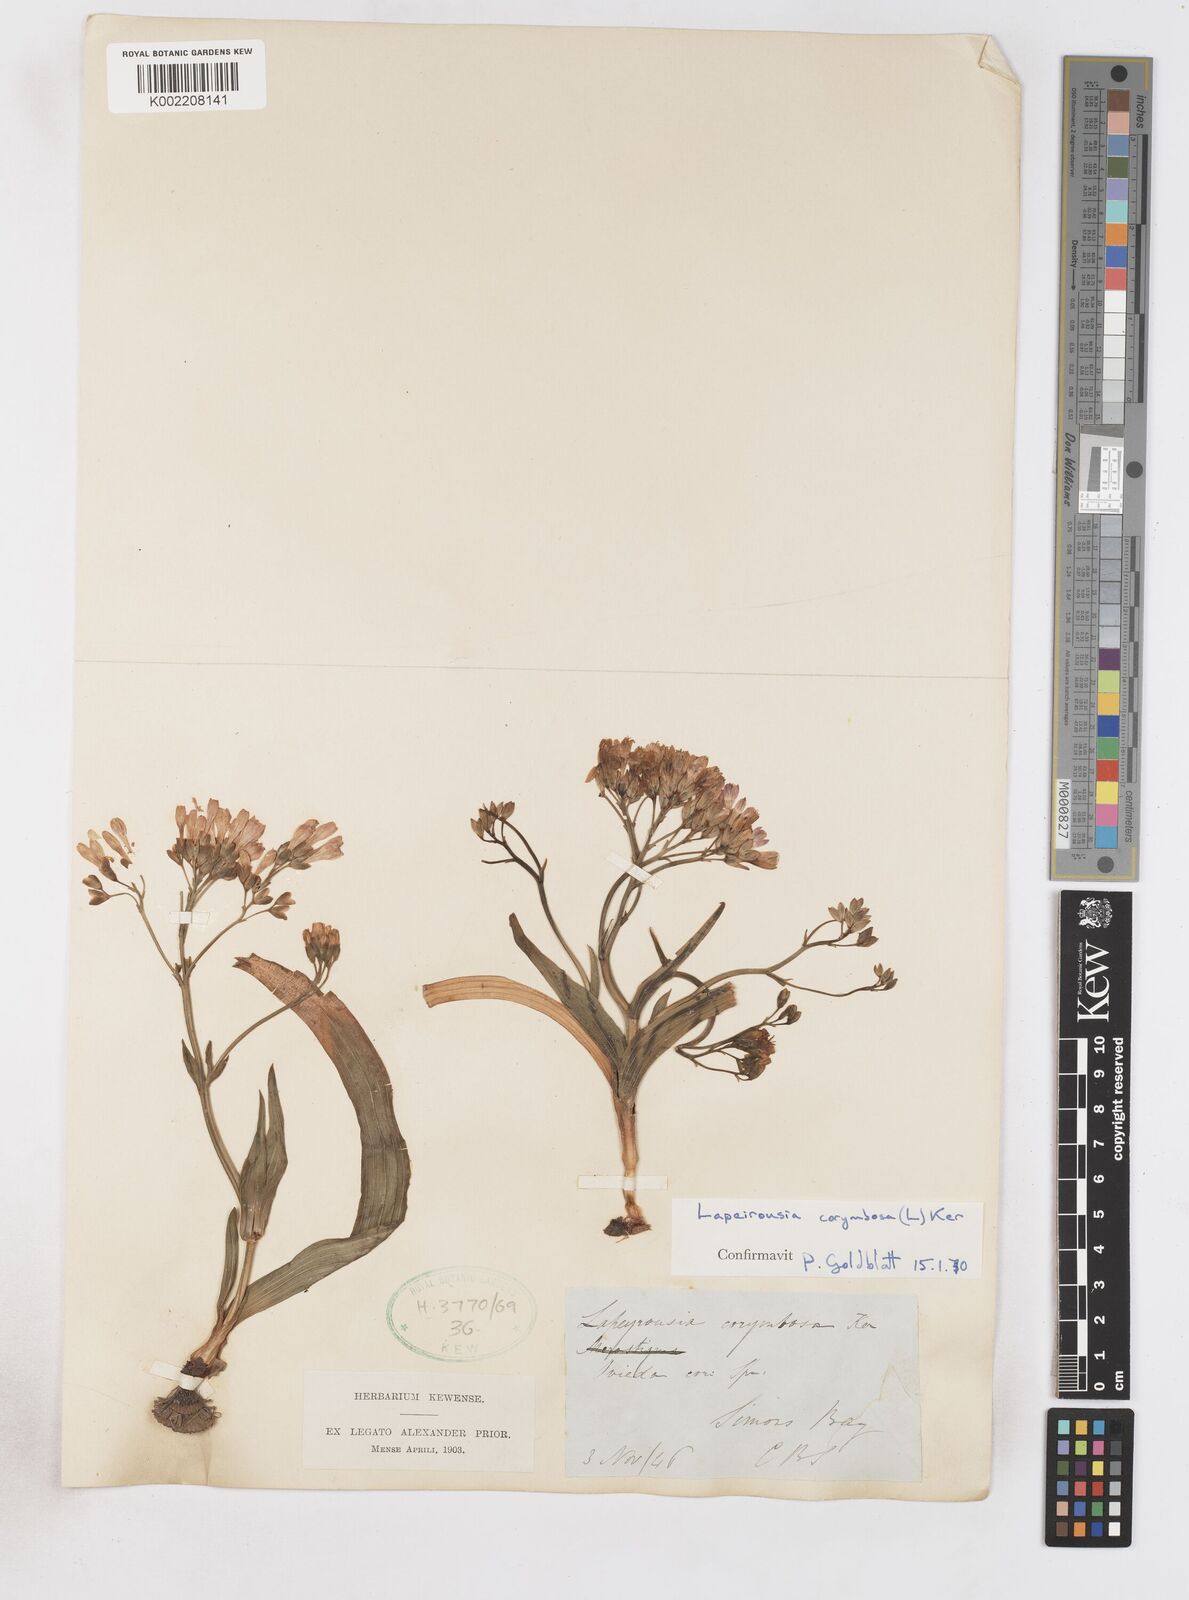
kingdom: Plantae
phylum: Tracheophyta
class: Liliopsida
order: Asparagales
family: Iridaceae
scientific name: Iridaceae
